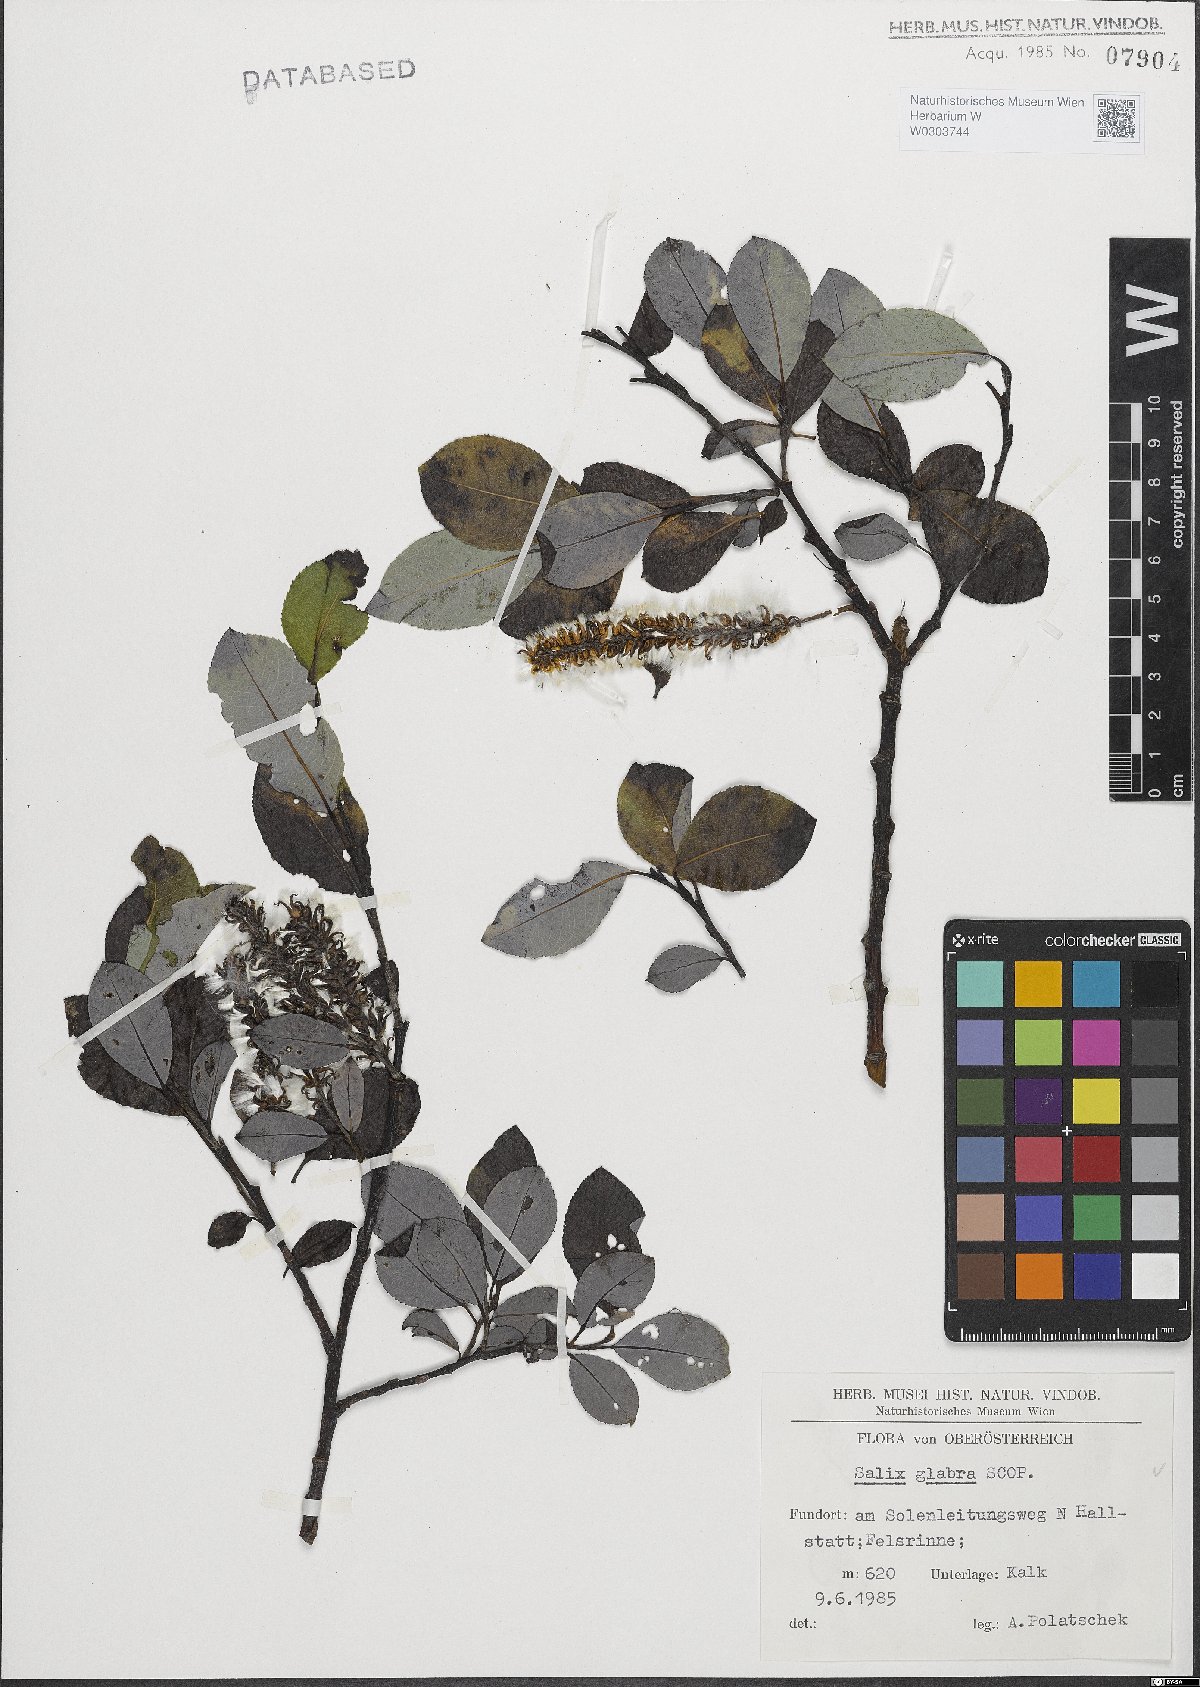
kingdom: Plantae
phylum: Tracheophyta
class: Magnoliopsida
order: Malpighiales
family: Salicaceae
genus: Salix
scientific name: Salix glabra
